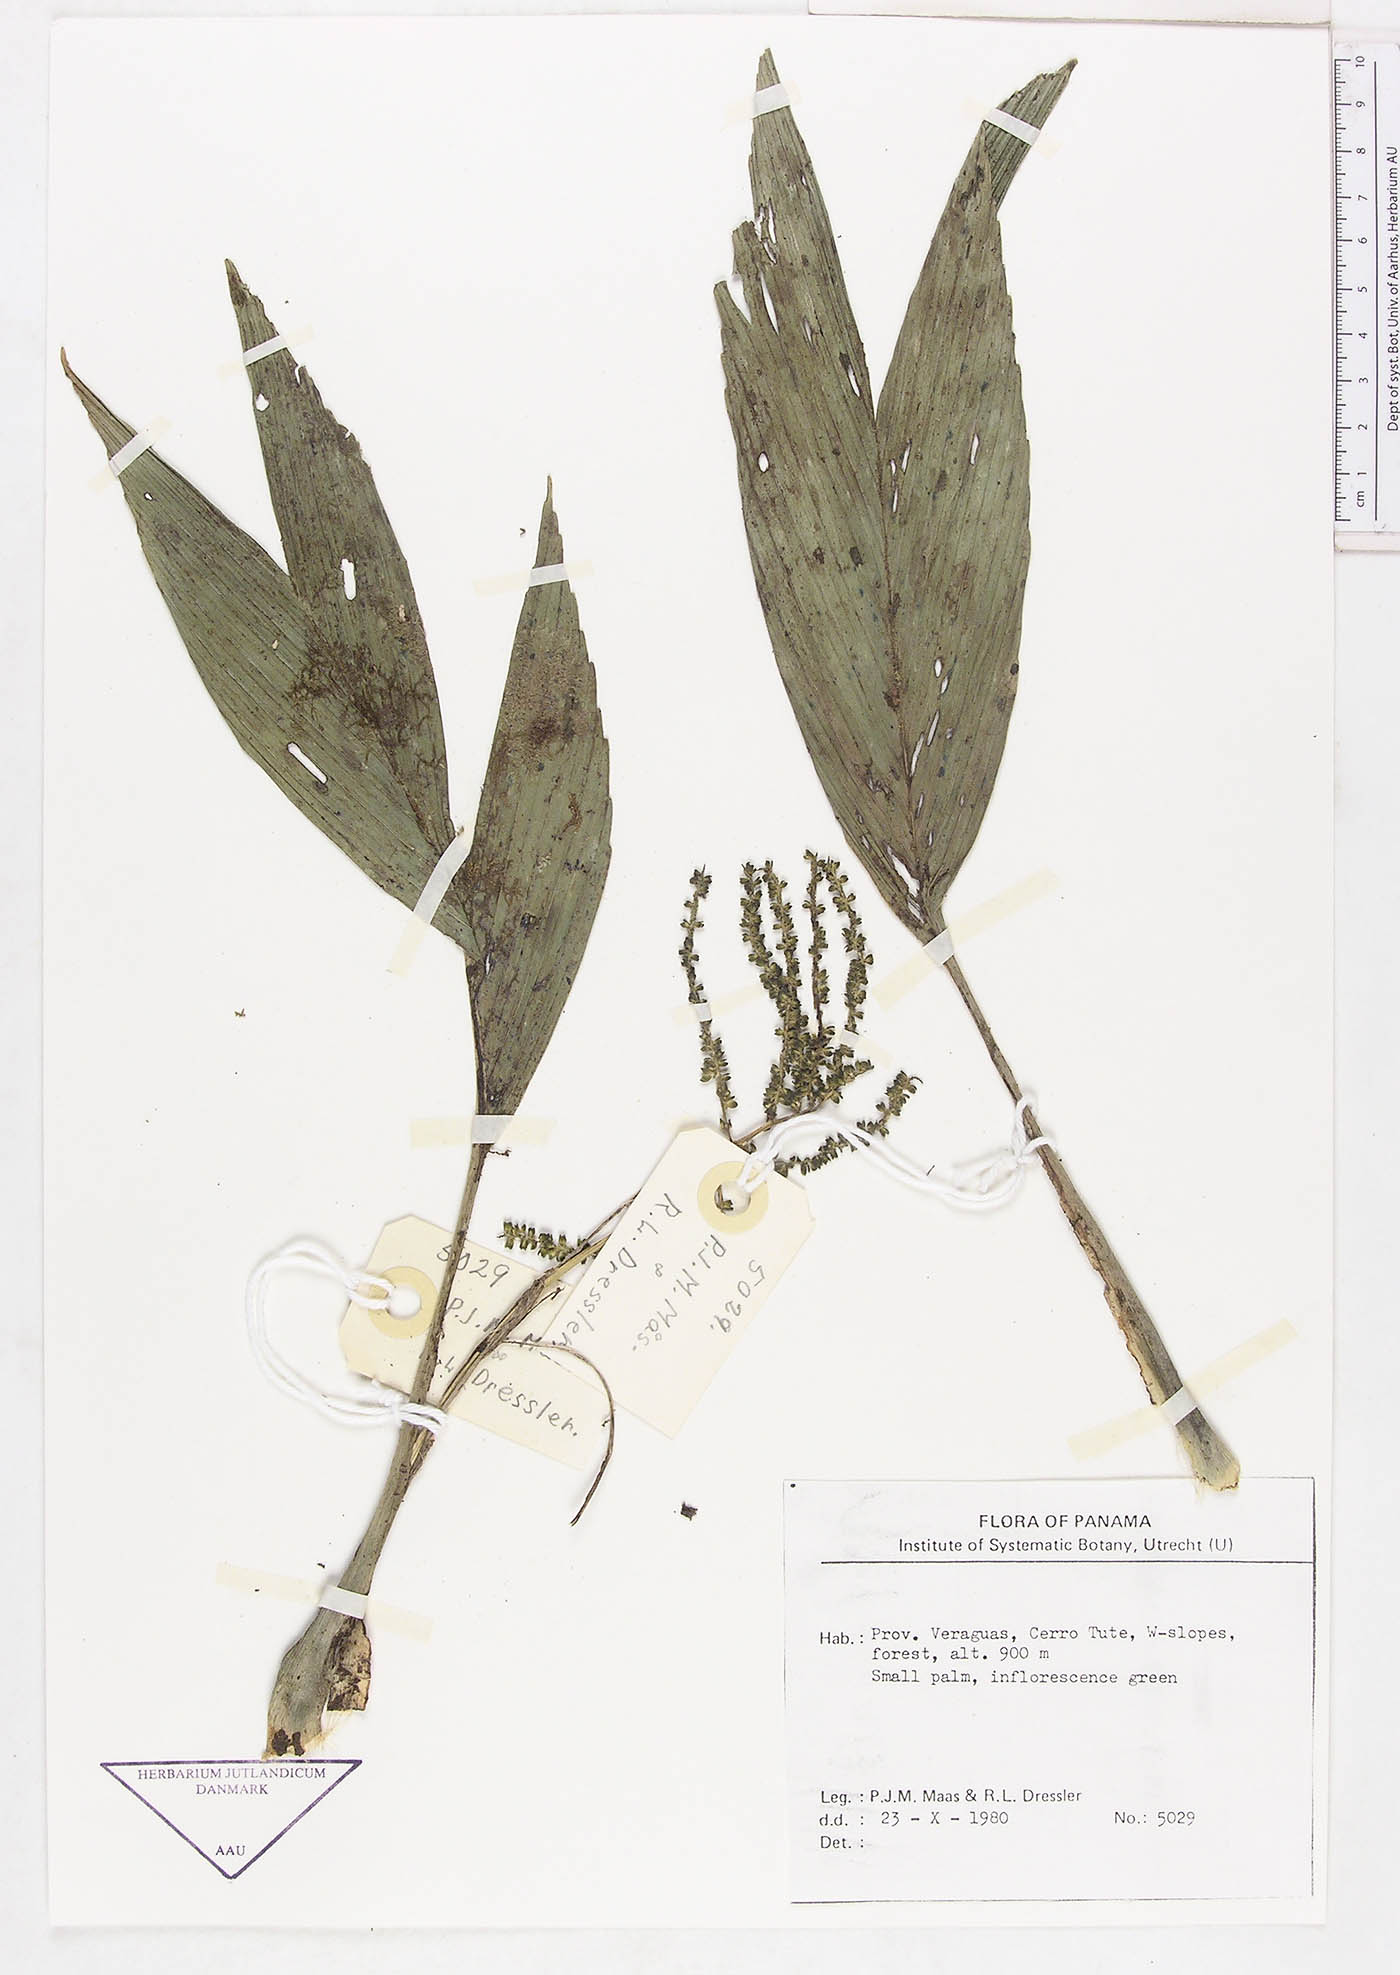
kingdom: Plantae
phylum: Tracheophyta
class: Liliopsida
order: Arecales
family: Arecaceae
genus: Chamaedorea
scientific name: Chamaedorea
